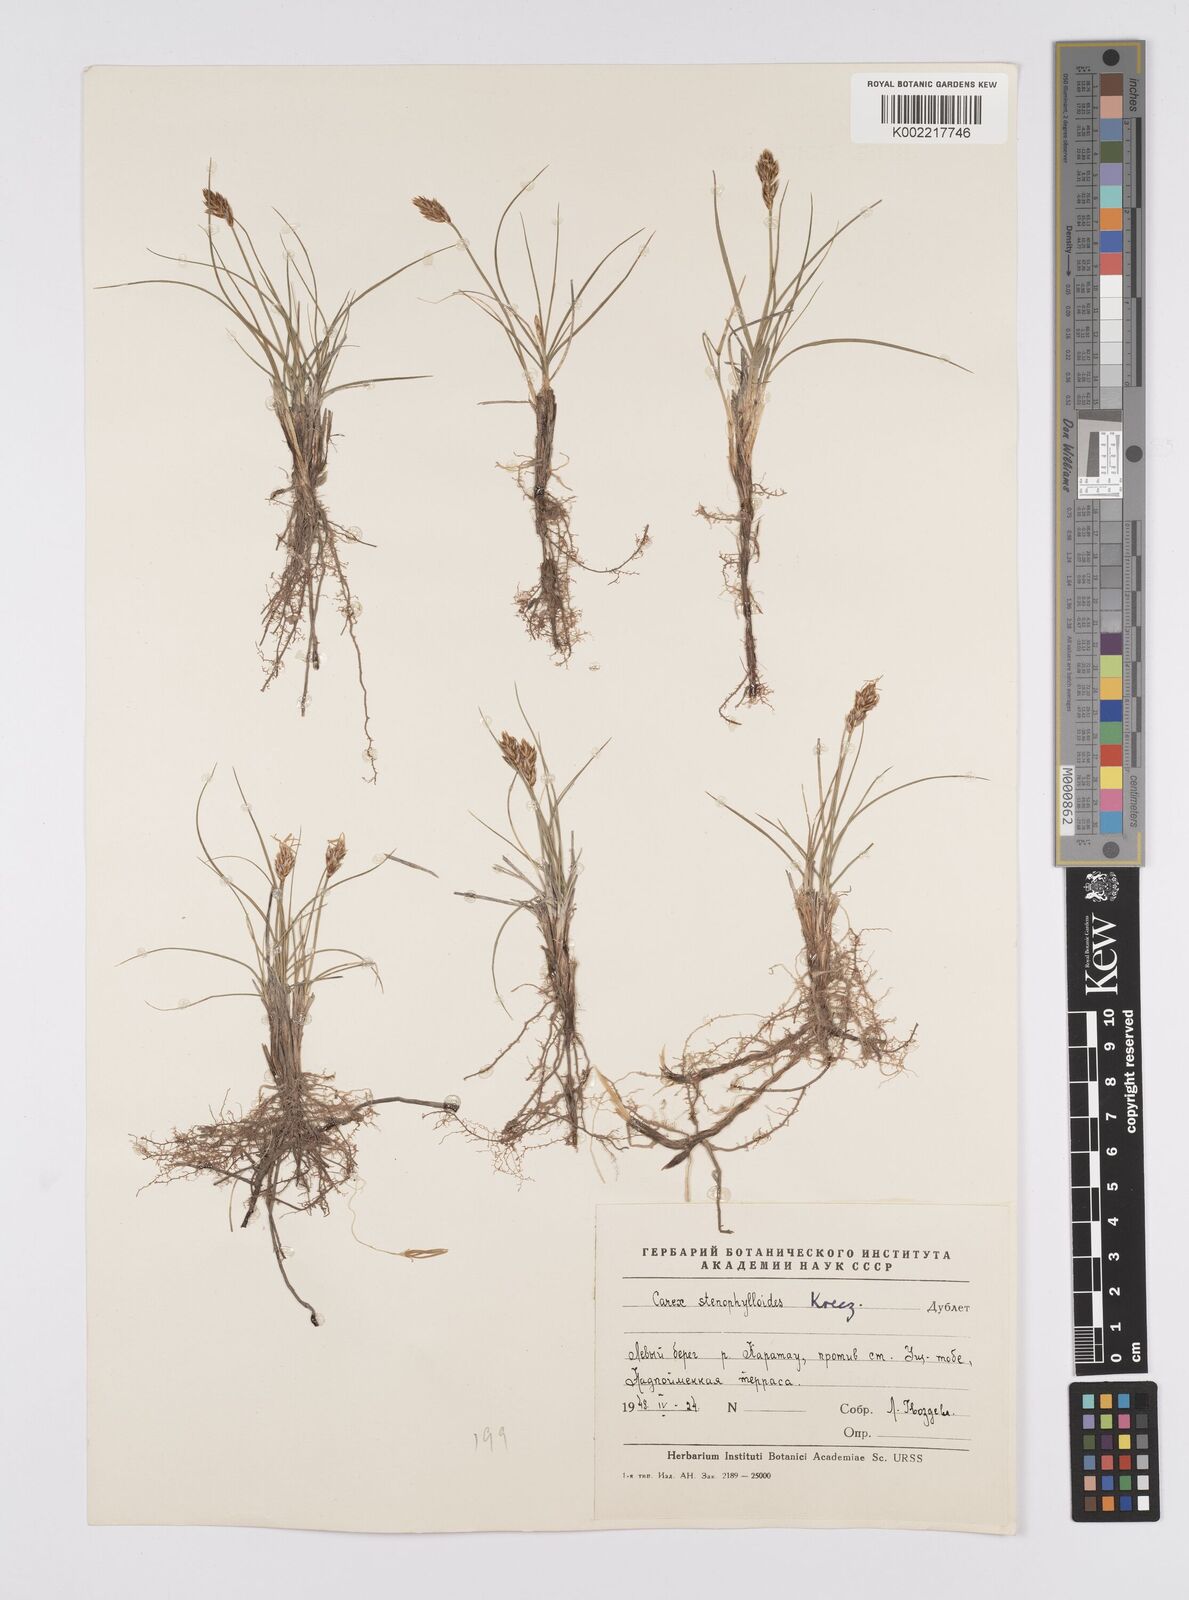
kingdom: Plantae
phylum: Tracheophyta
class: Liliopsida
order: Poales
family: Cyperaceae
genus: Carex
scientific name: Carex stenophylla
